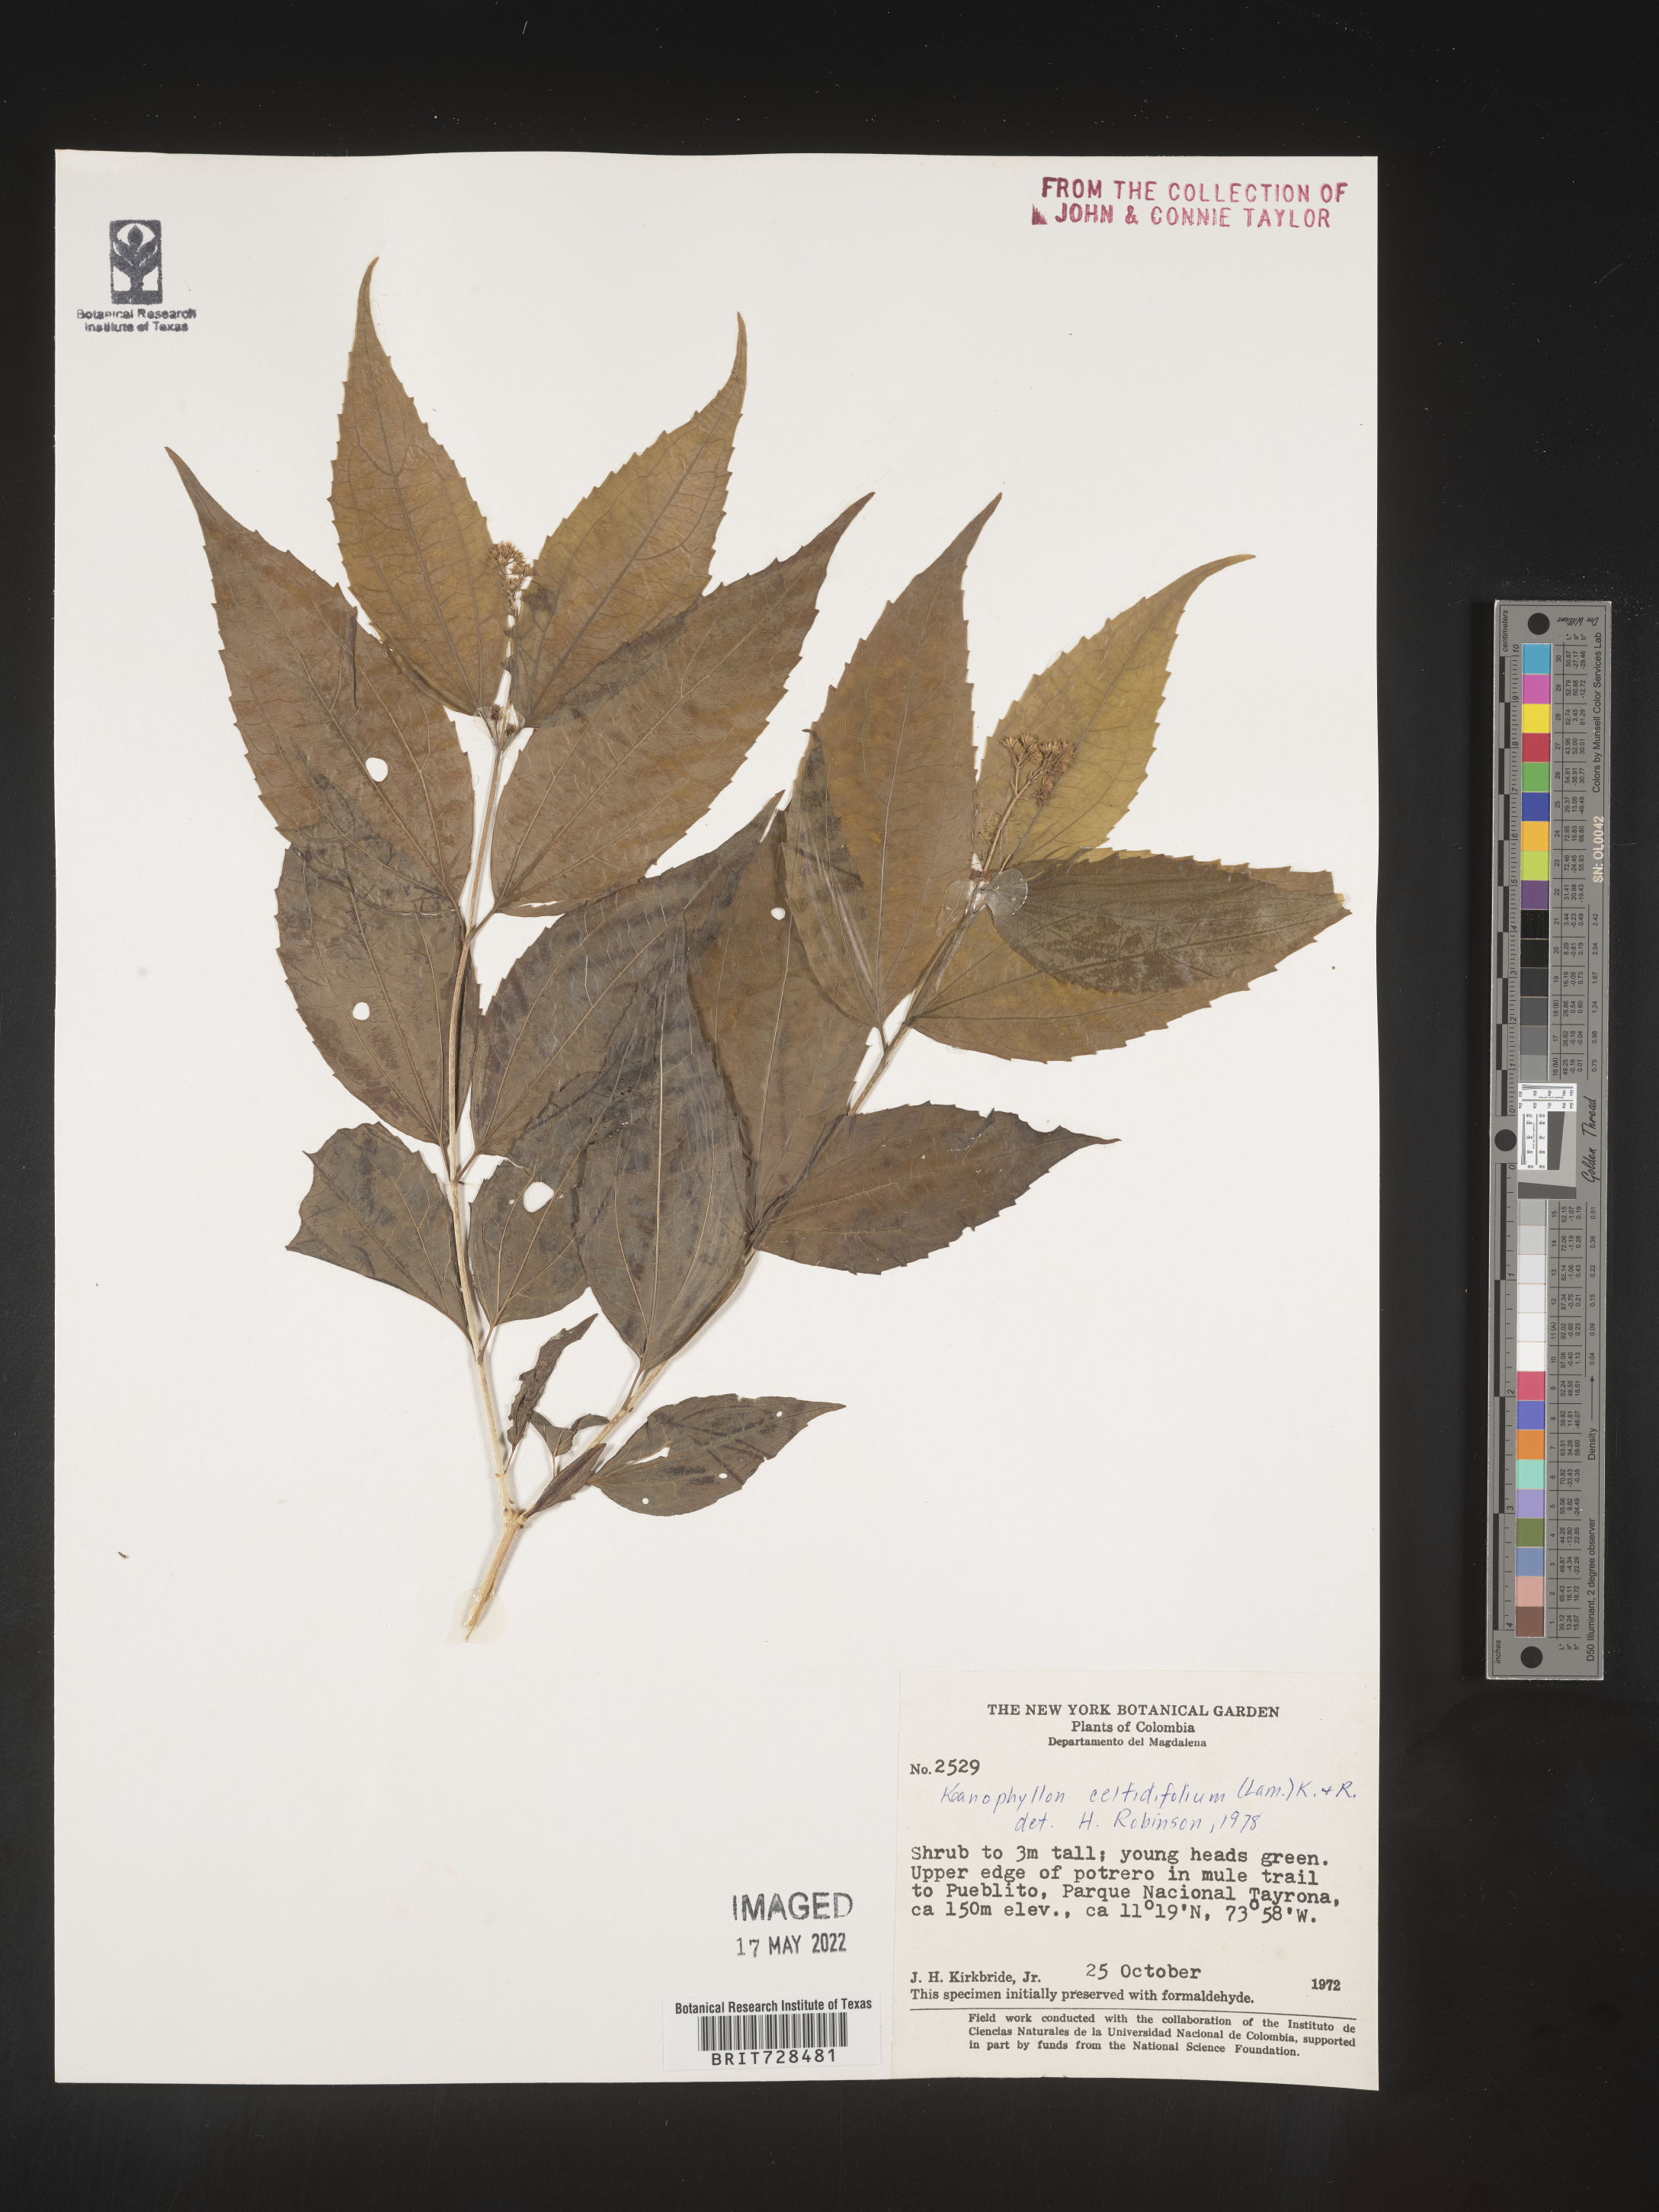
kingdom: Plantae
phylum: Tracheophyta
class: Magnoliopsida
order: Asterales
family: Asteraceae
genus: Koanophyllon
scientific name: Koanophyllon
